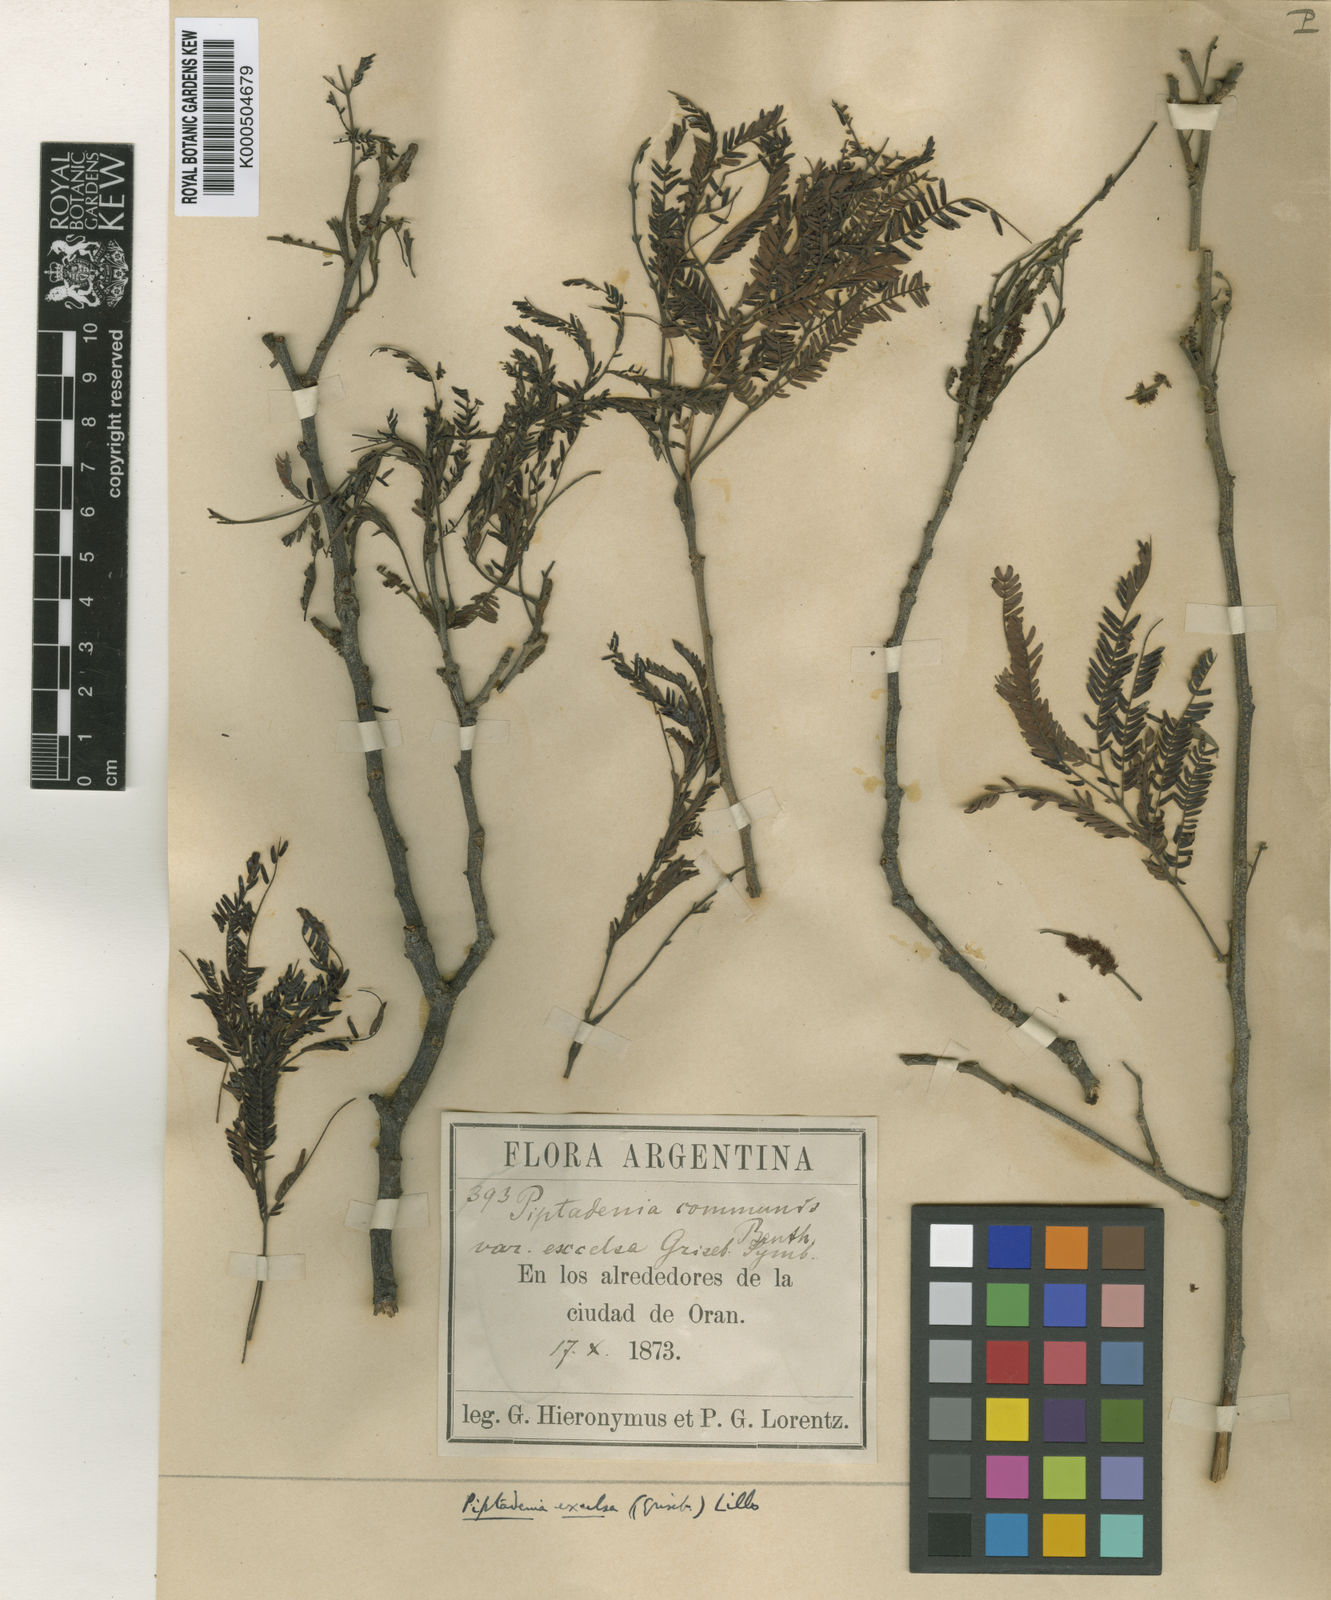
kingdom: Plantae
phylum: Tracheophyta
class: Magnoliopsida
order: Fabales
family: Fabaceae
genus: Parapiptadenia
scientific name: Parapiptadenia excelsa
